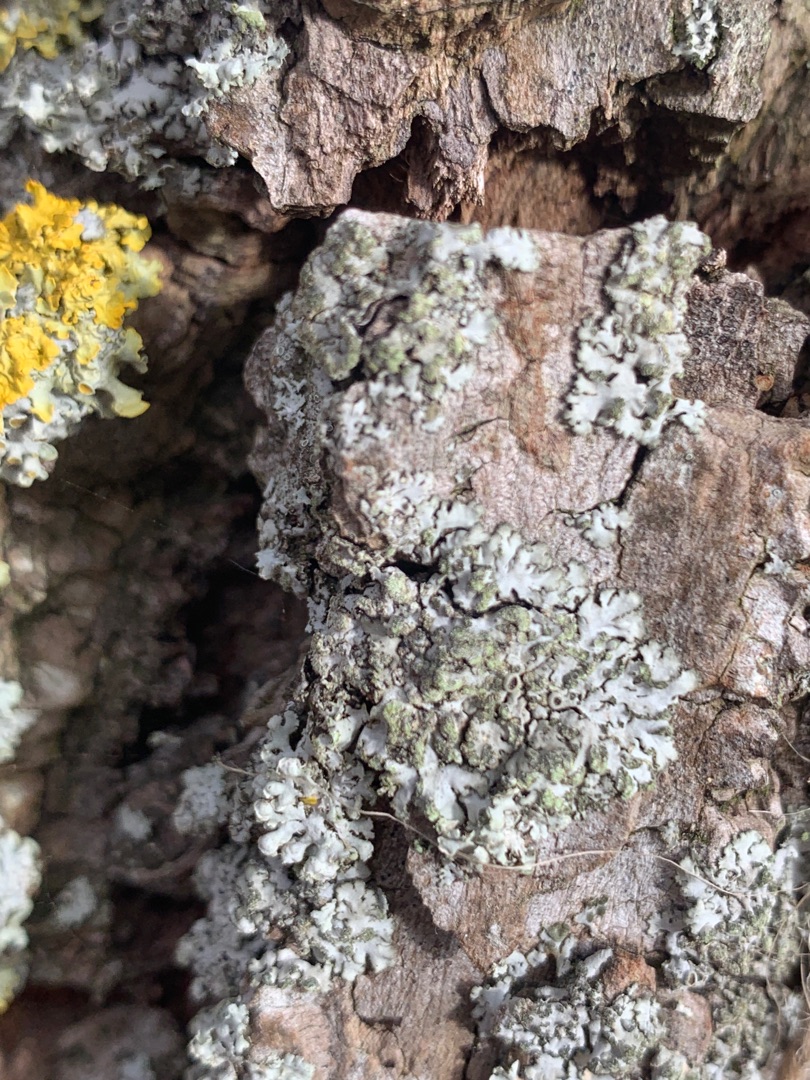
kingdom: Fungi
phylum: Ascomycota
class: Lecanoromycetes
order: Caliciales
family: Physciaceae
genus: Phaeophyscia
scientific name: Phaeophyscia orbicularis
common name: Grågrøn rosetlav
